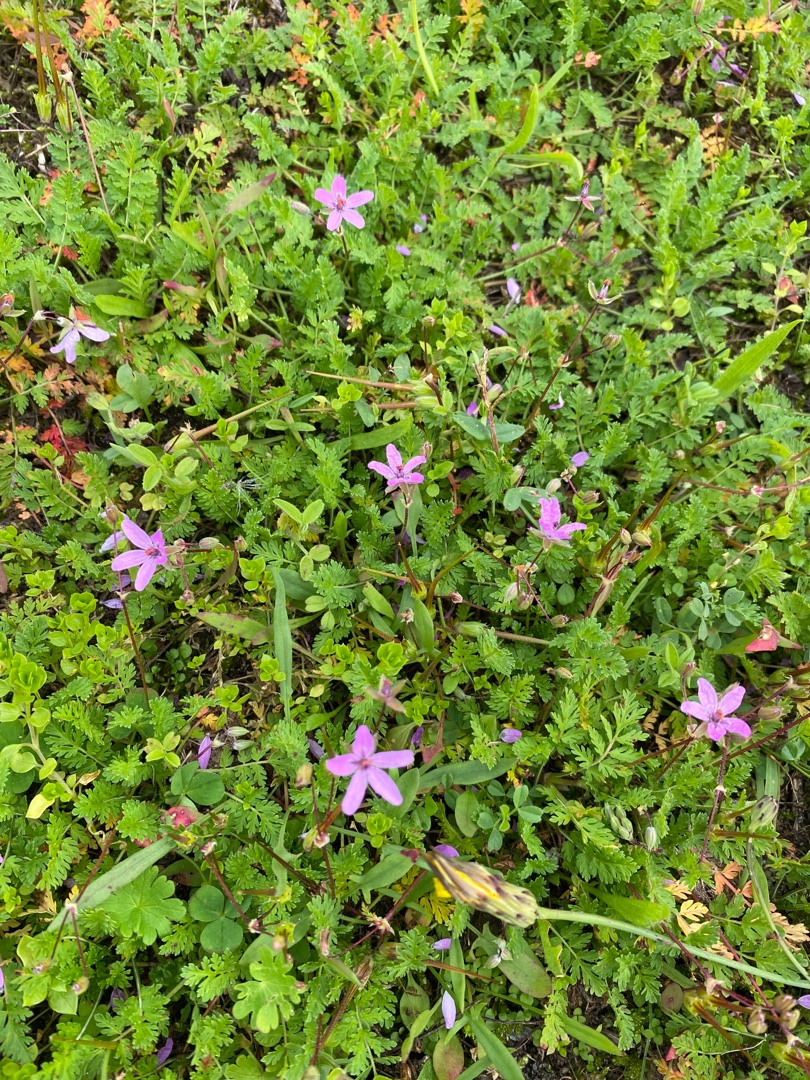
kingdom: Plantae
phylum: Tracheophyta
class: Magnoliopsida
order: Geraniales
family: Geraniaceae
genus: Erodium
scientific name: Erodium cicutarium
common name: Hejrenæb
